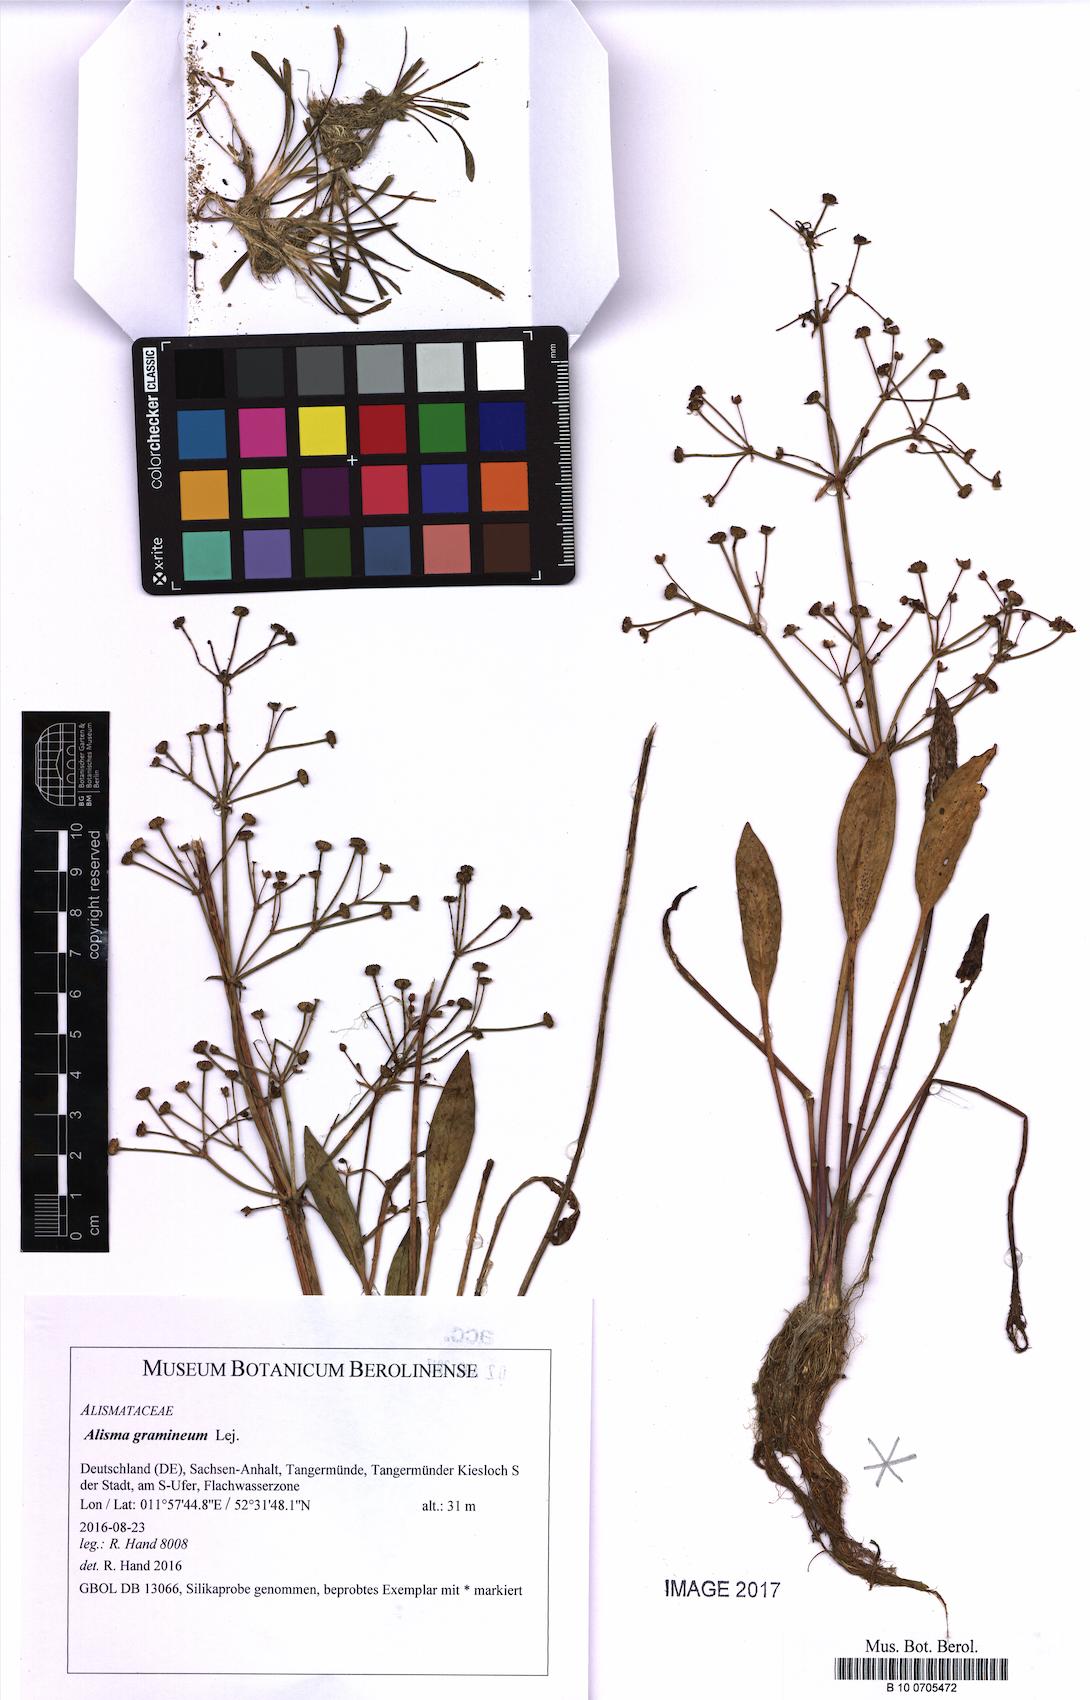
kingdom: Plantae
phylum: Tracheophyta
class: Liliopsida
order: Alismatales
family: Alismataceae
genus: Alisma
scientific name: Alisma gramineum
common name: Ribbon-leaved water-plantain
